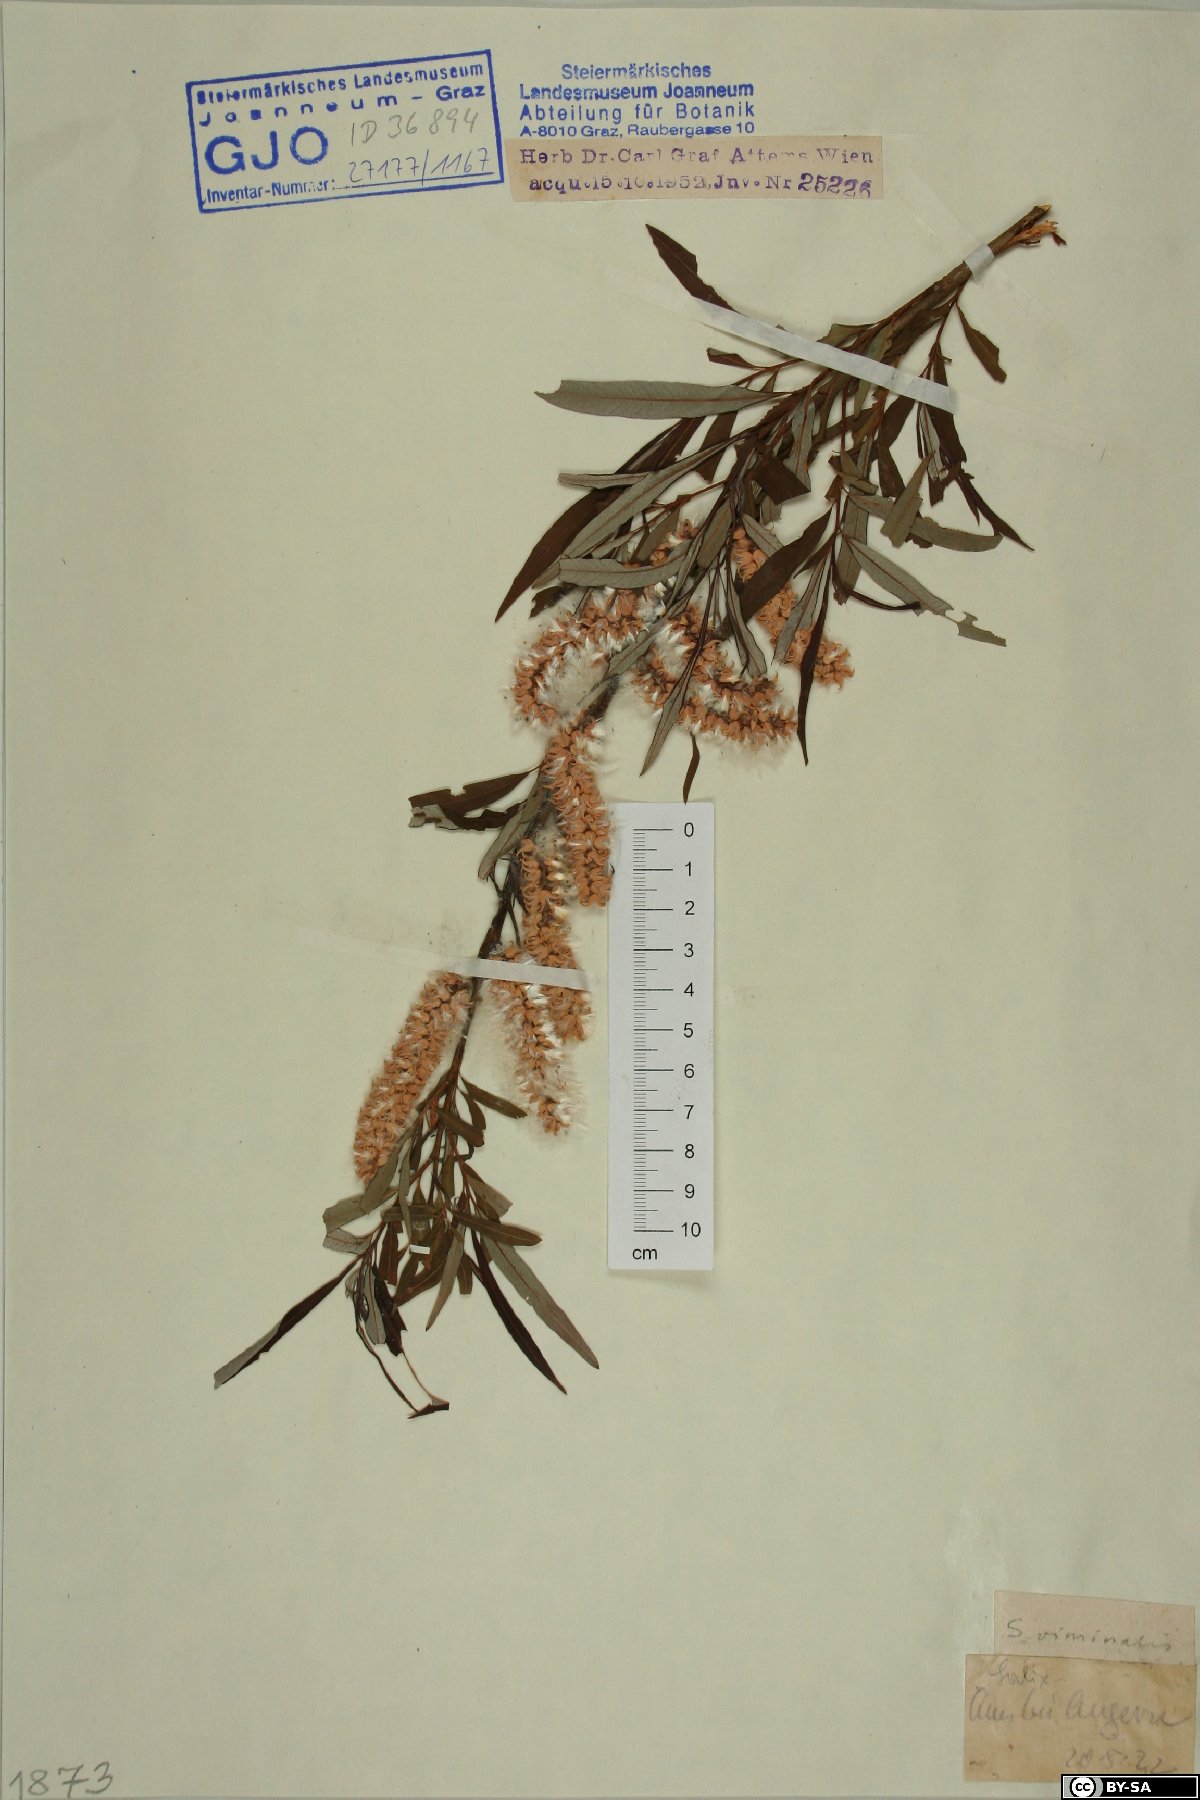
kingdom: Plantae
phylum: Tracheophyta
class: Magnoliopsida
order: Malpighiales
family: Salicaceae
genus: Salix
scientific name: Salix viminalis
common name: Osier
